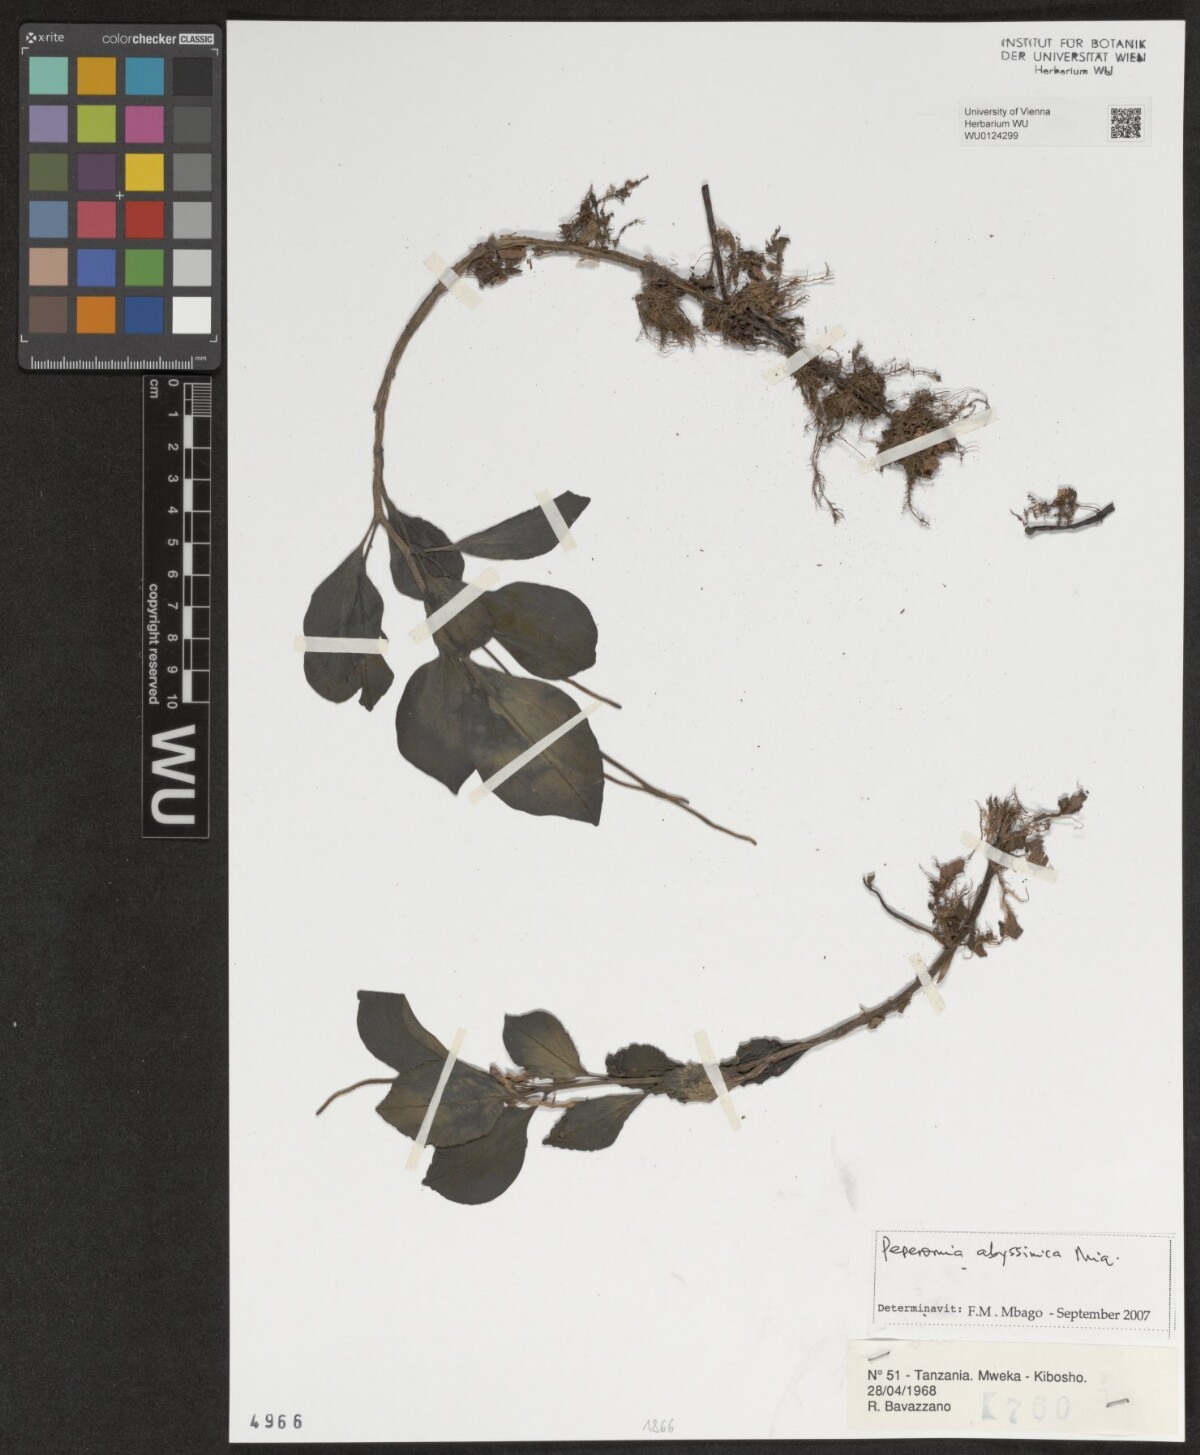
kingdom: Plantae
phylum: Tracheophyta
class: Magnoliopsida
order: Piperales
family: Piperaceae
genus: Peperomia
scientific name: Peperomia abyssinica
